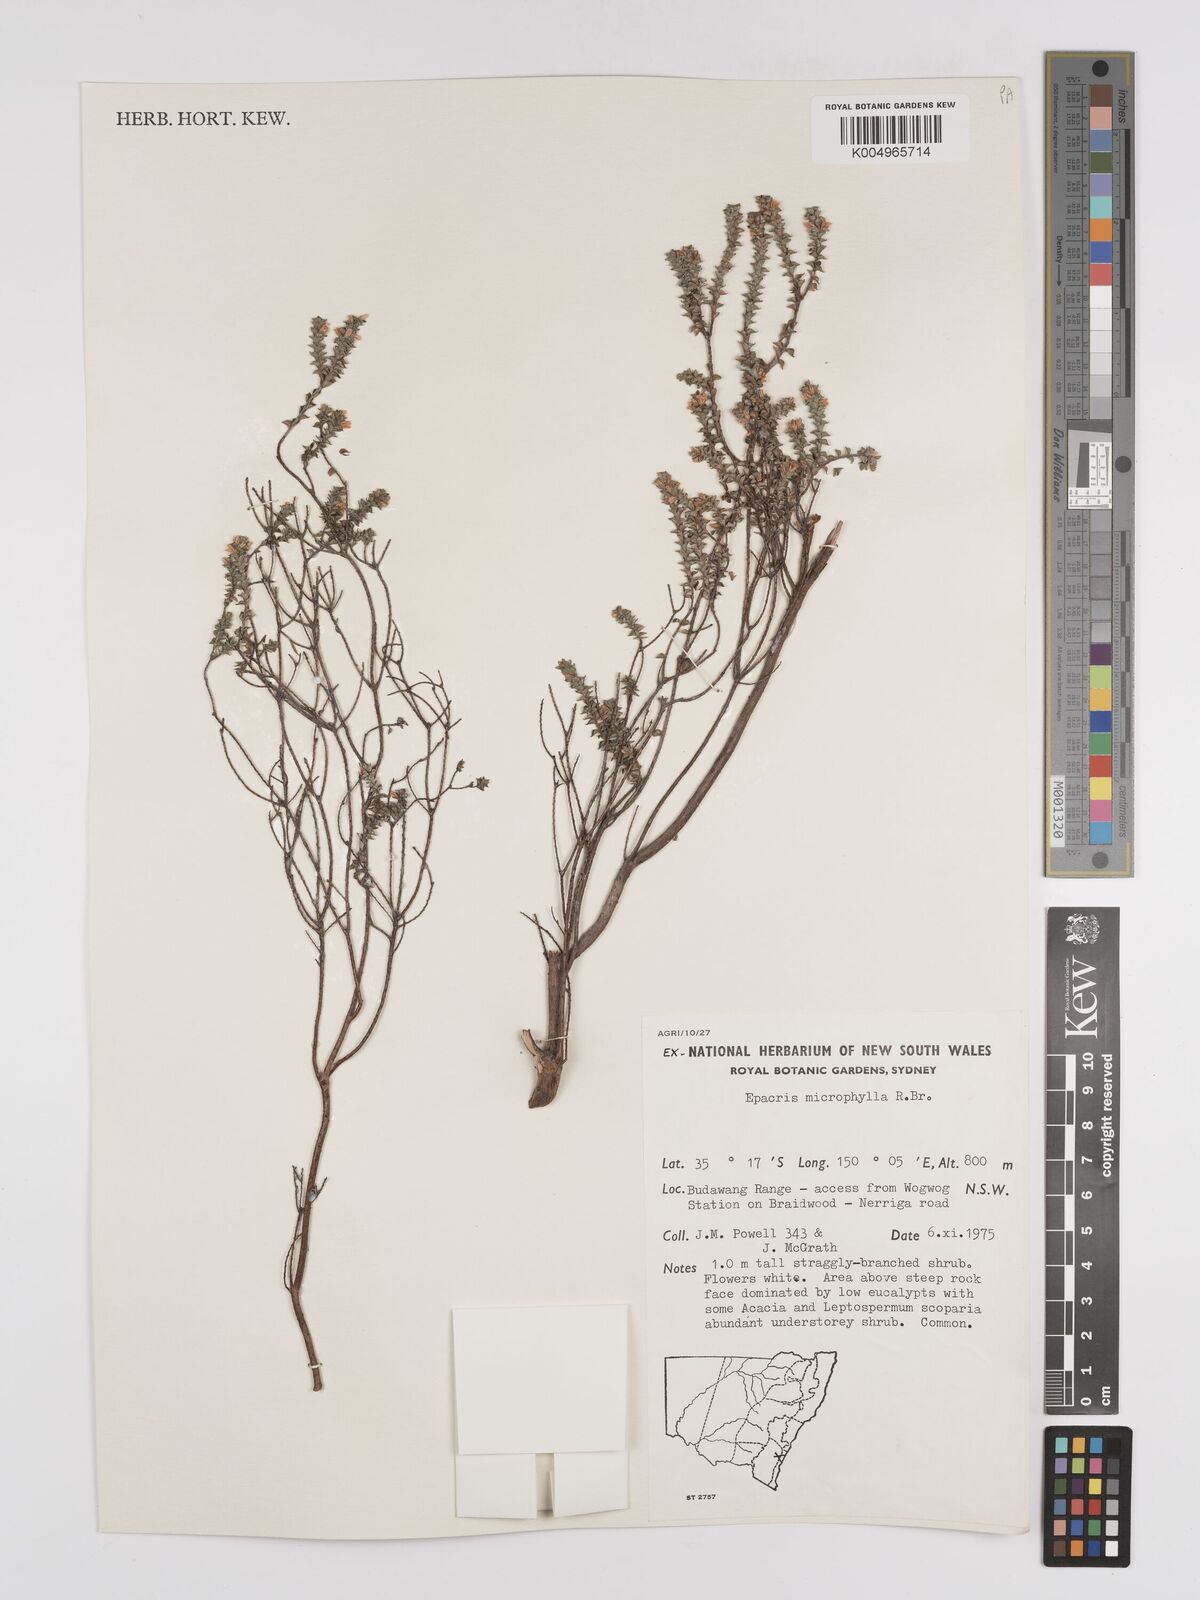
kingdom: Plantae
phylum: Tracheophyta
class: Magnoliopsida
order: Ericales
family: Ericaceae
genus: Epacris
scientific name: Epacris
